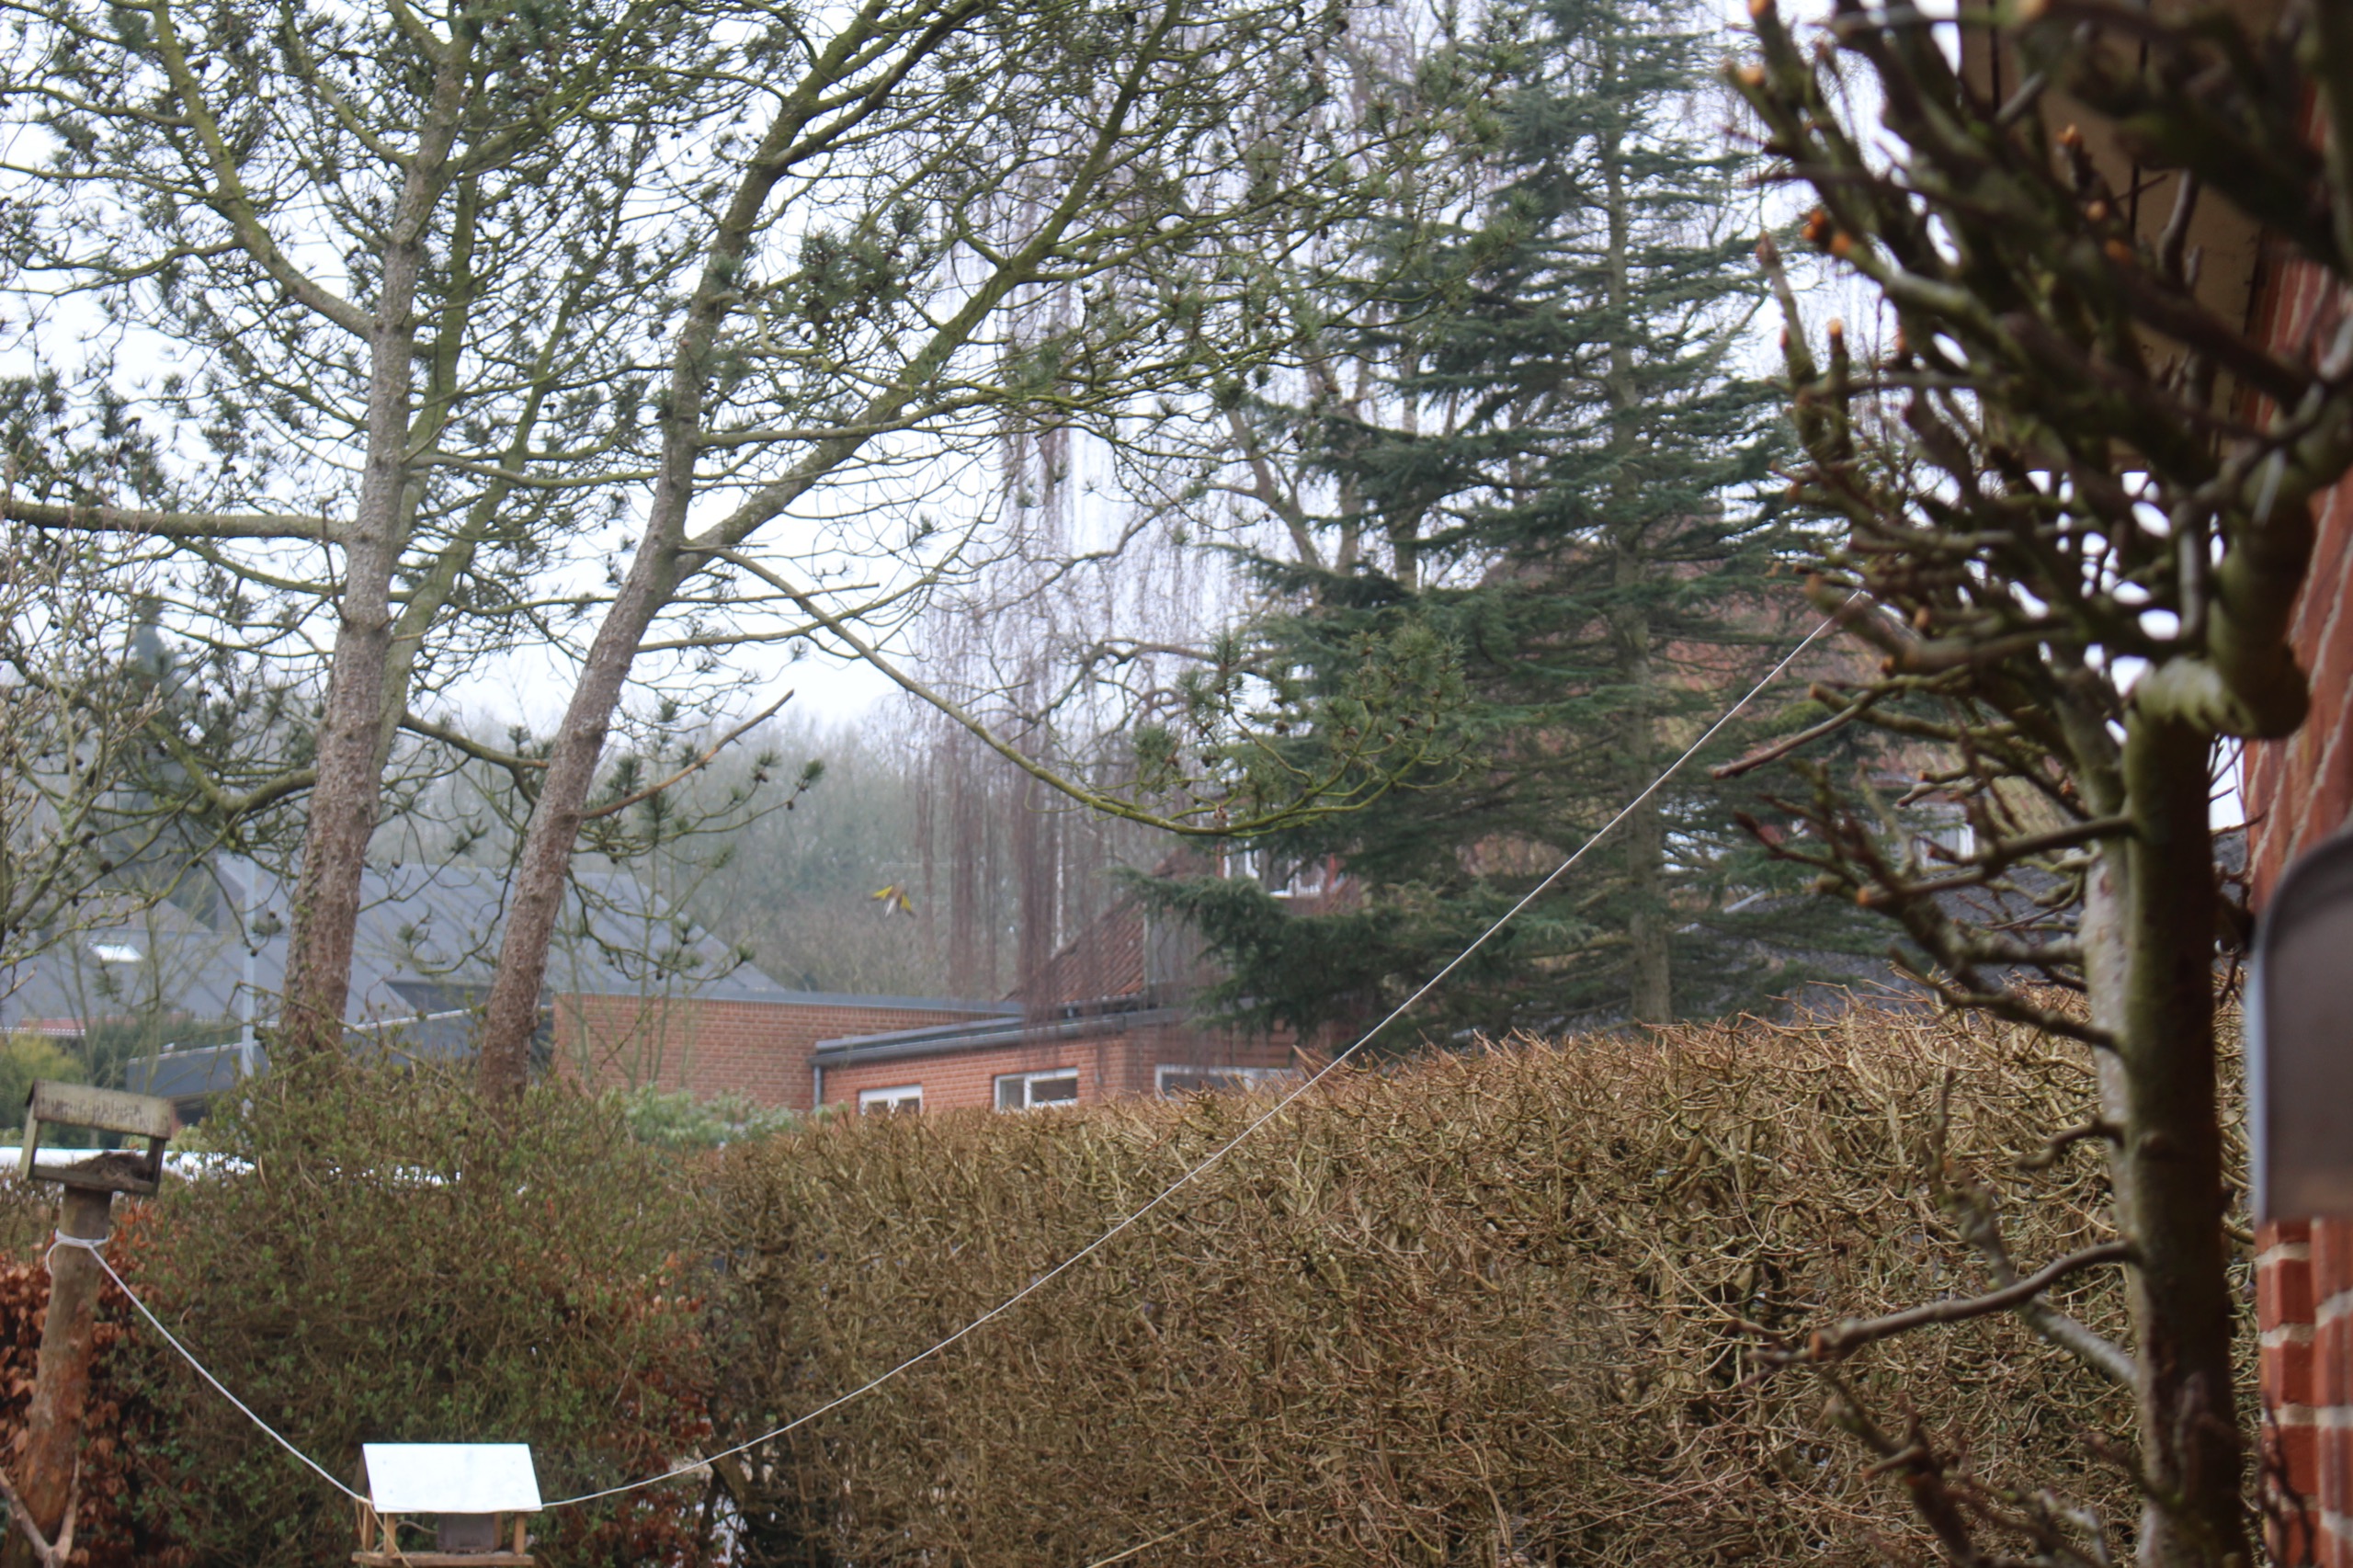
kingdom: Animalia
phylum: Chordata
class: Aves
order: Passeriformes
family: Fringillidae
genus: Carduelis
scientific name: Carduelis carduelis
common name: Stillits
